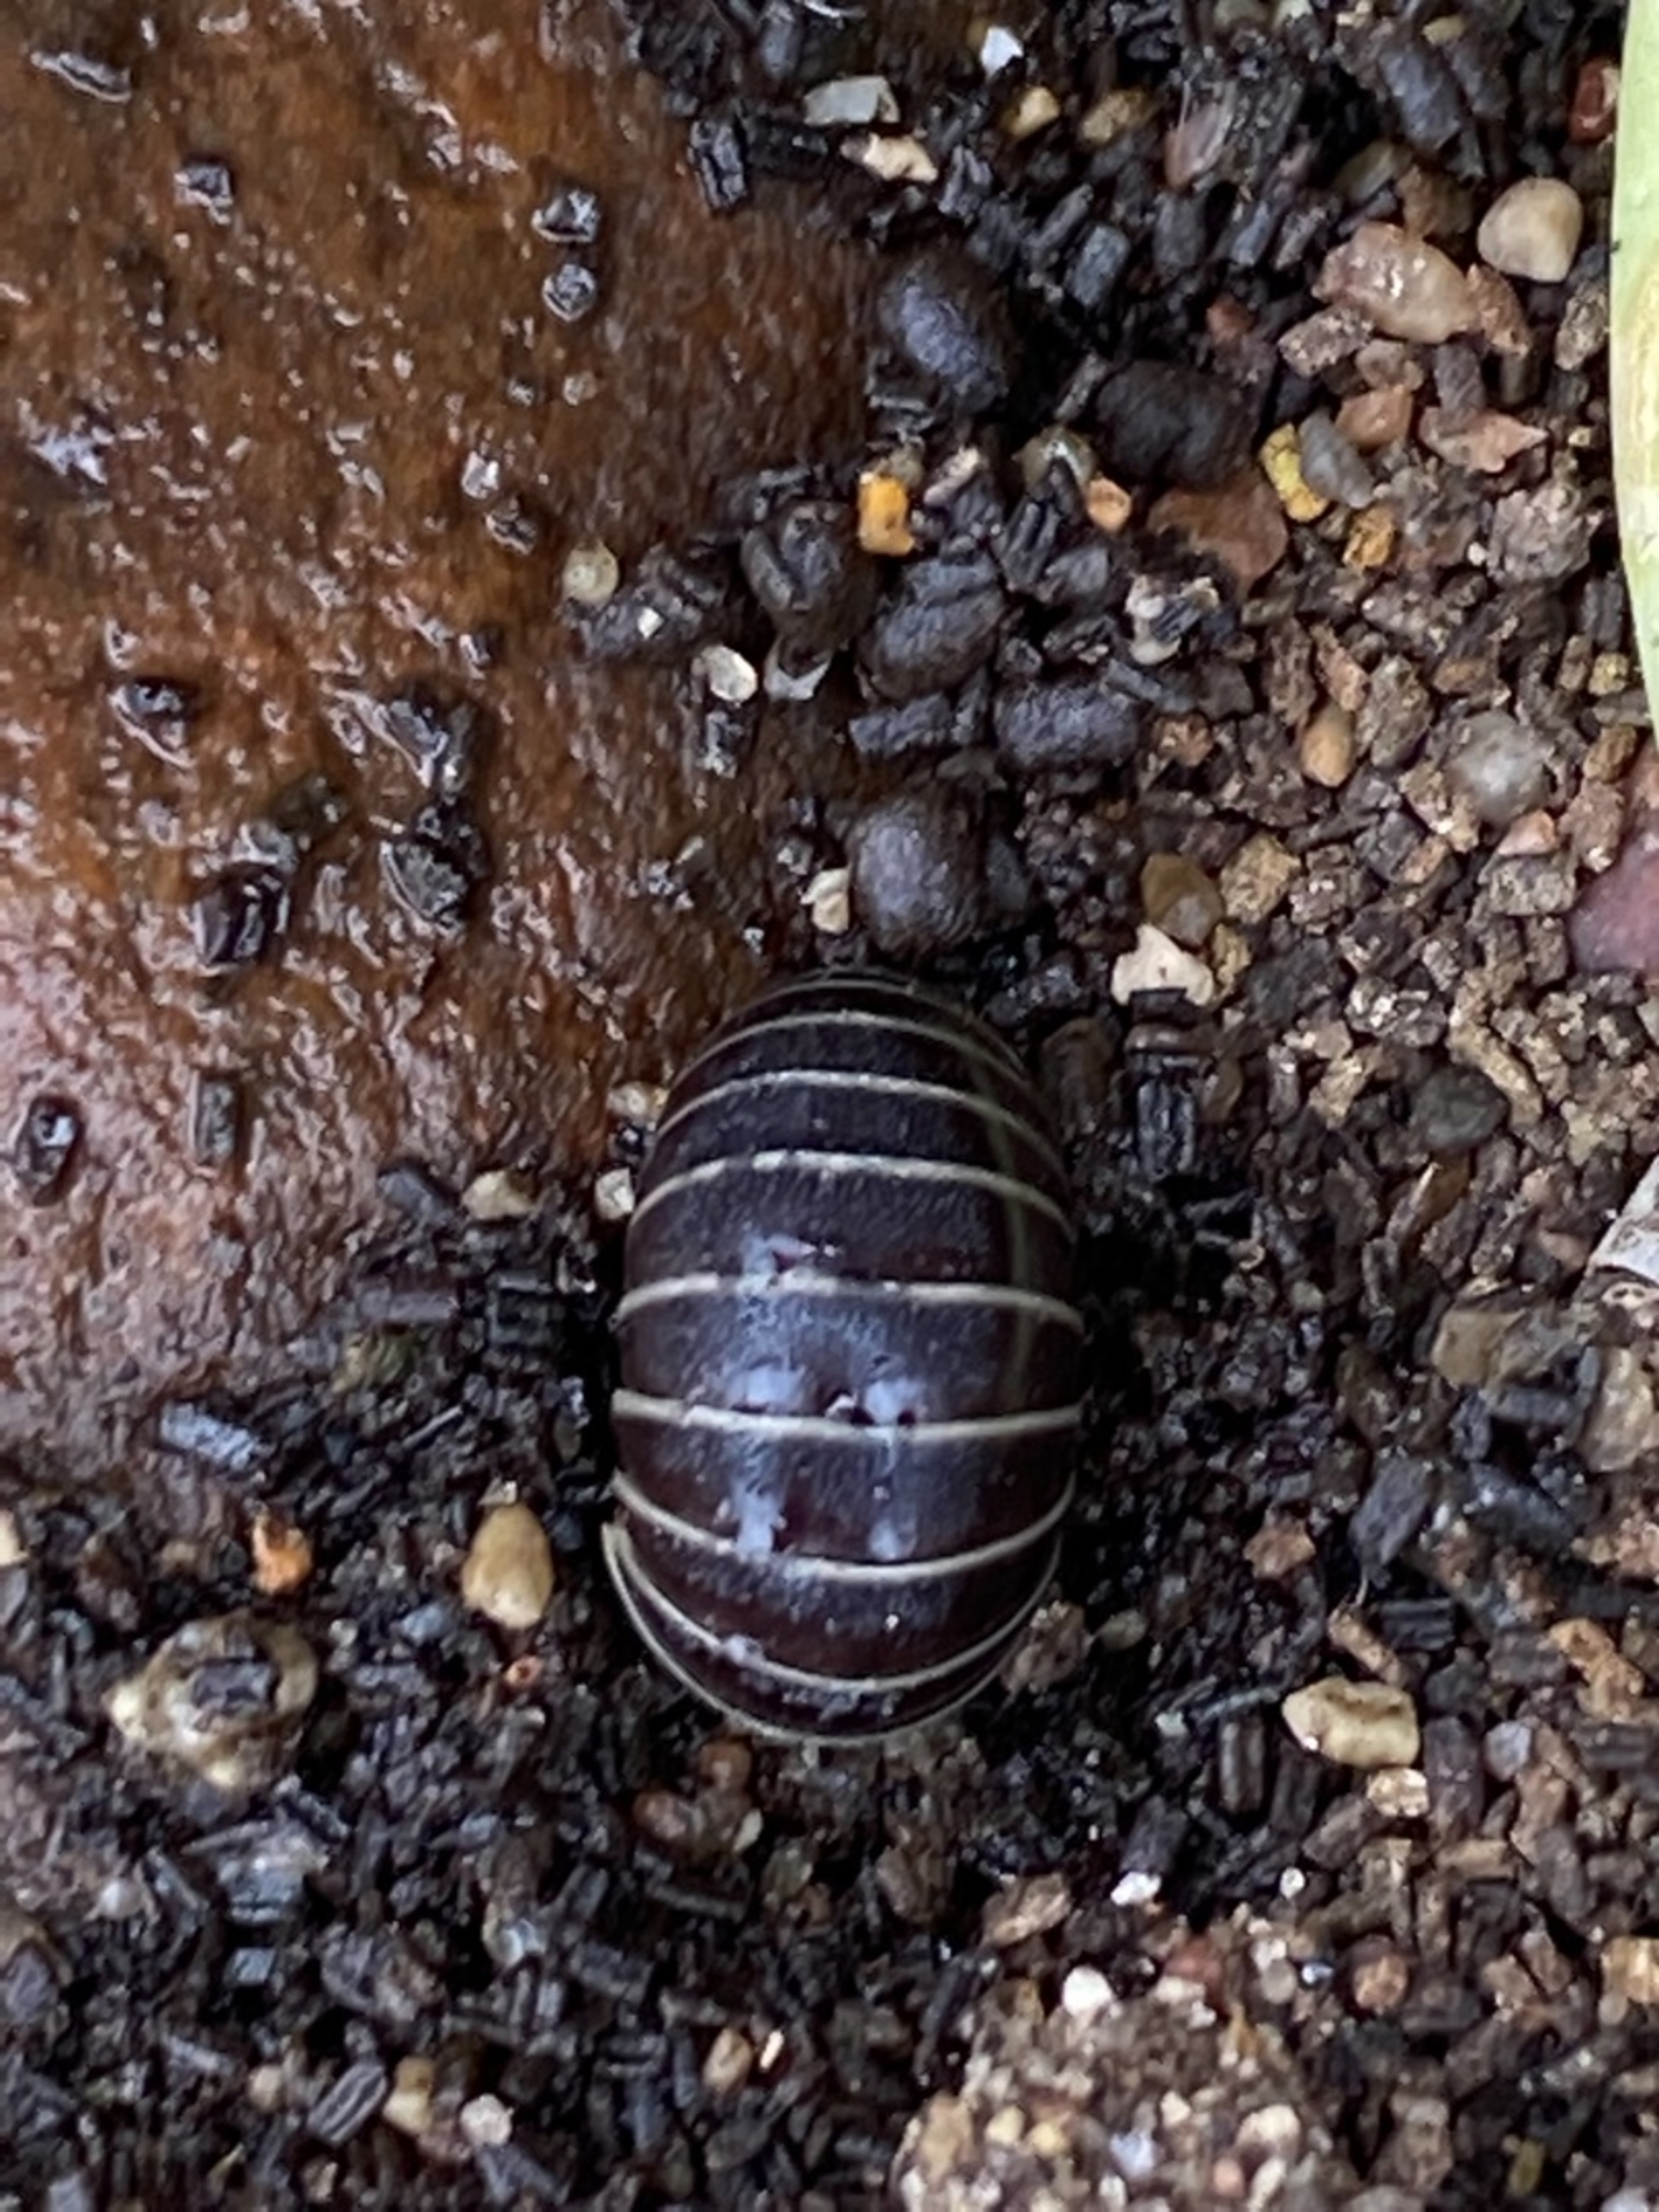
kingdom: Animalia
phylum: Arthropoda
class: Diplopoda
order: Glomerida
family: Glomeridae
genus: Glomeris
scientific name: Glomeris marginata
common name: Kugletusindben
